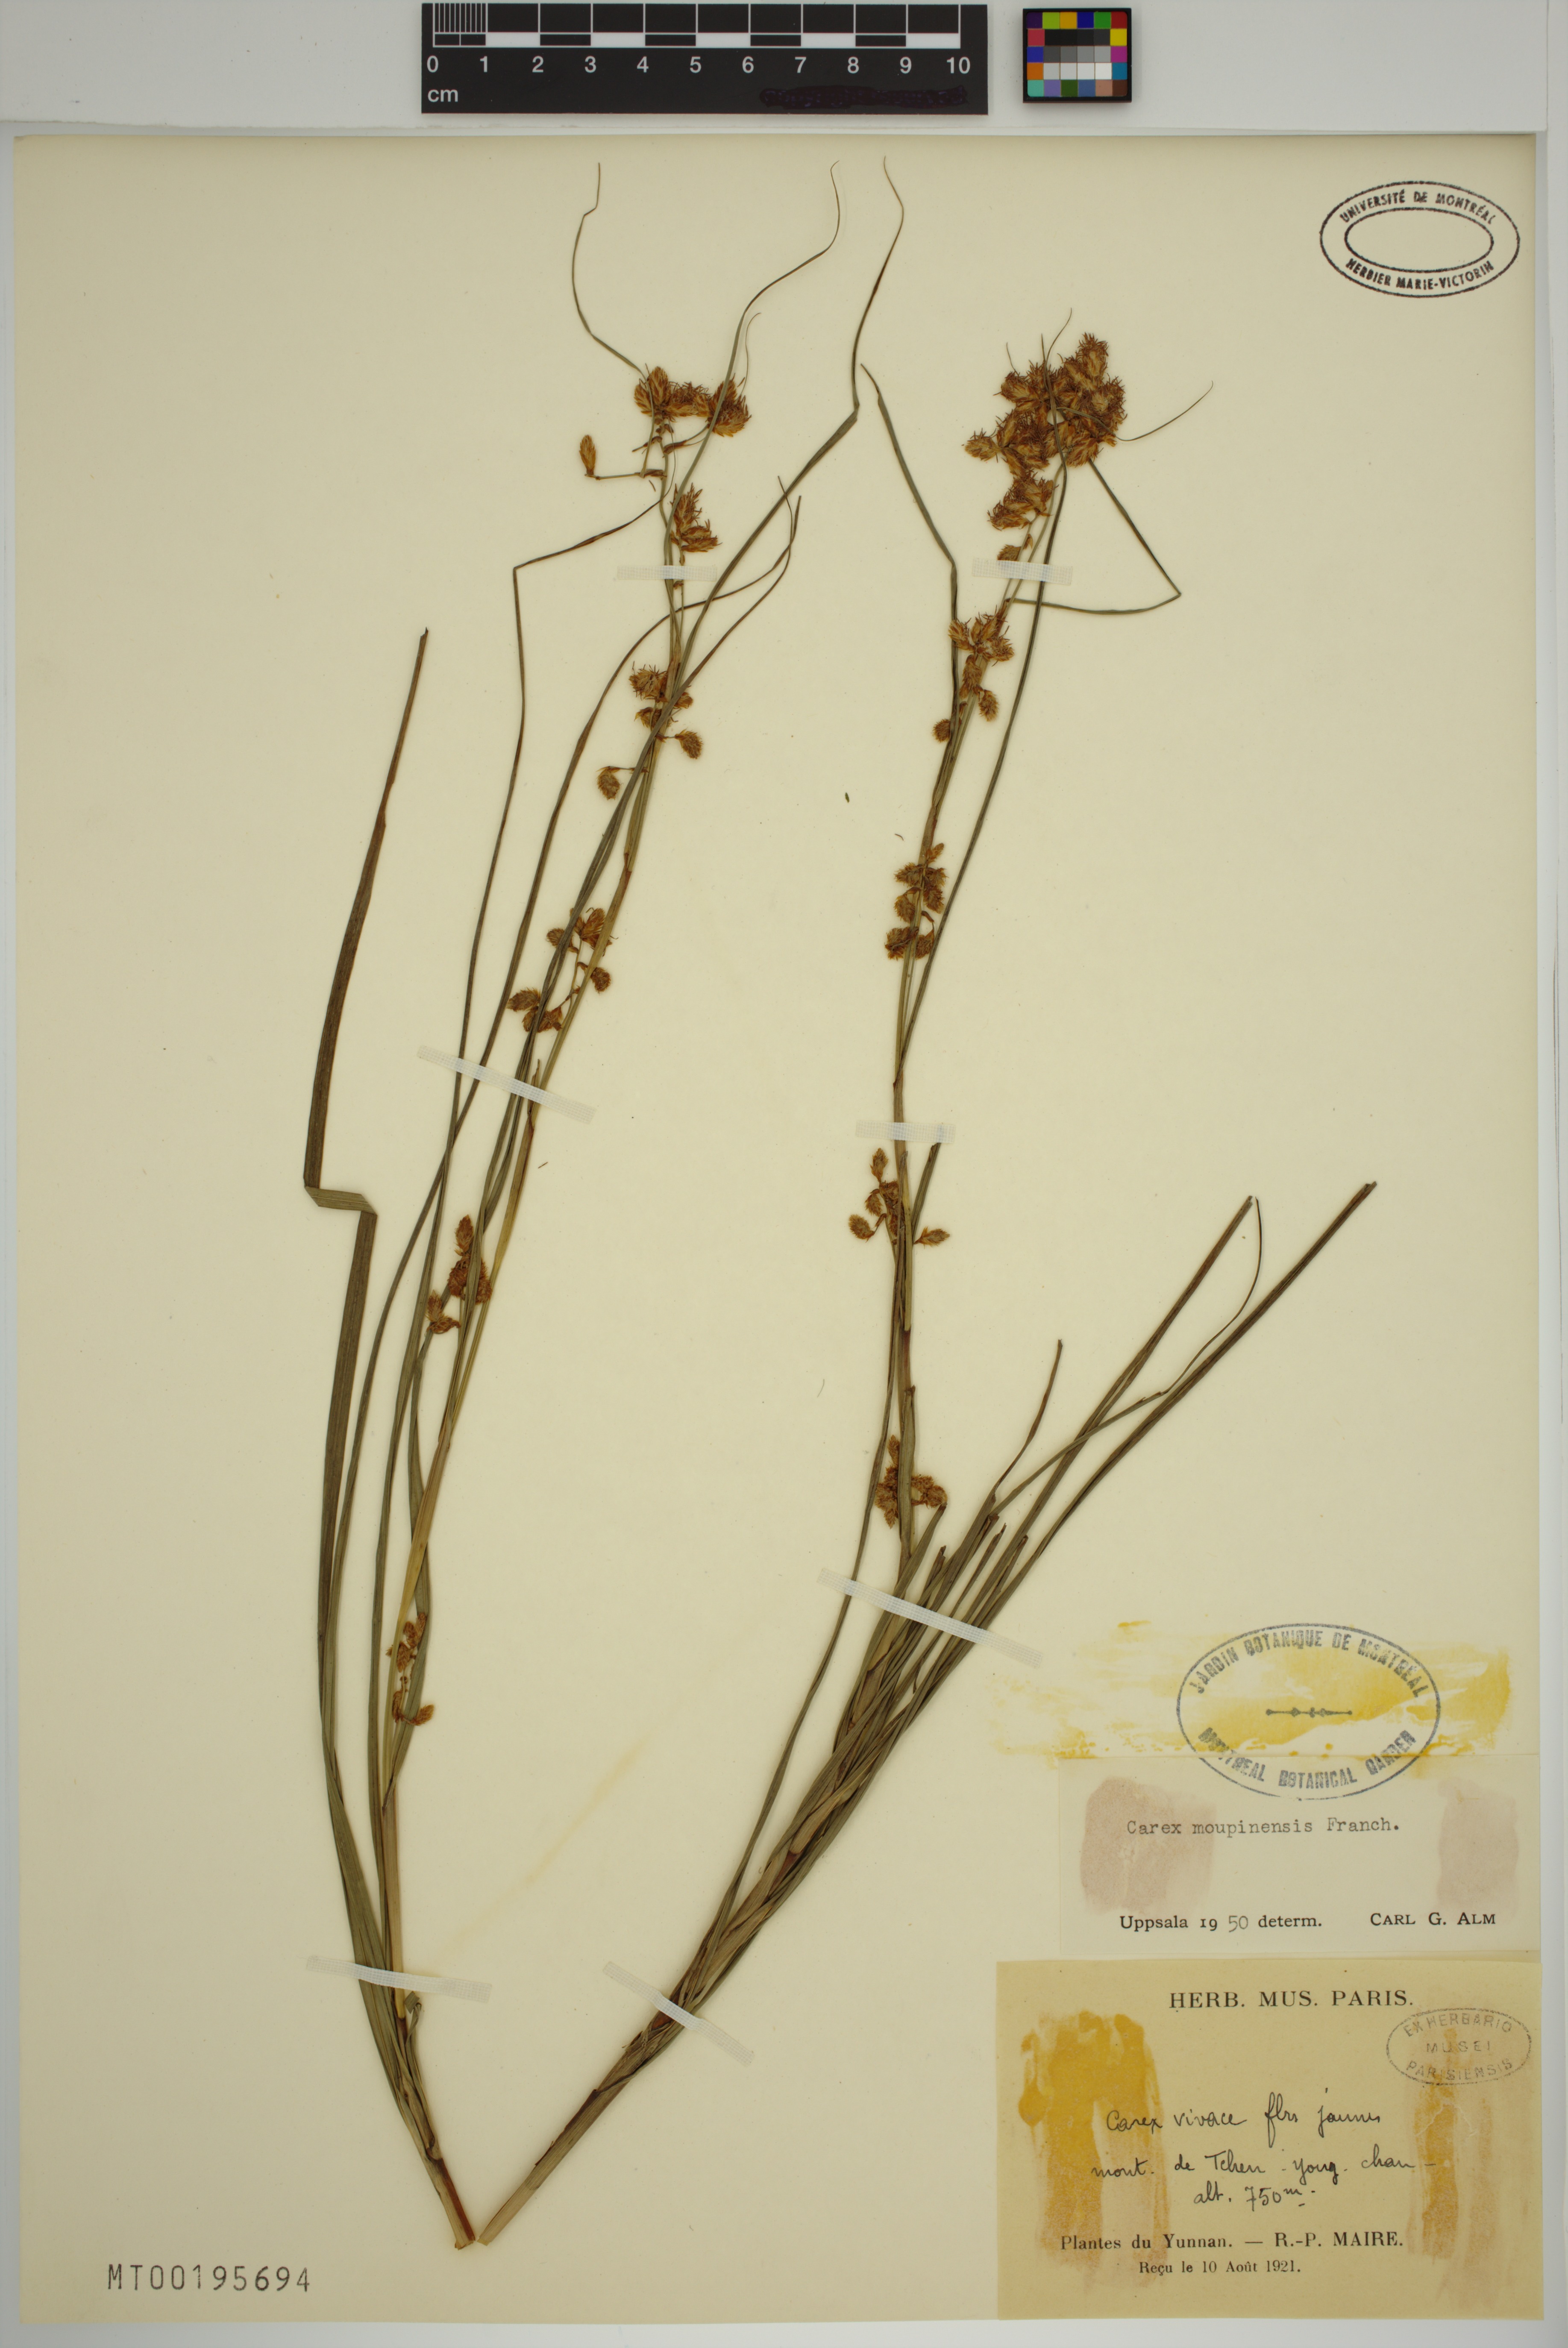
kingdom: Plantae
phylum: Tracheophyta
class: Liliopsida
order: Poales
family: Cyperaceae
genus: Carex
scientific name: Carex moupinensis
